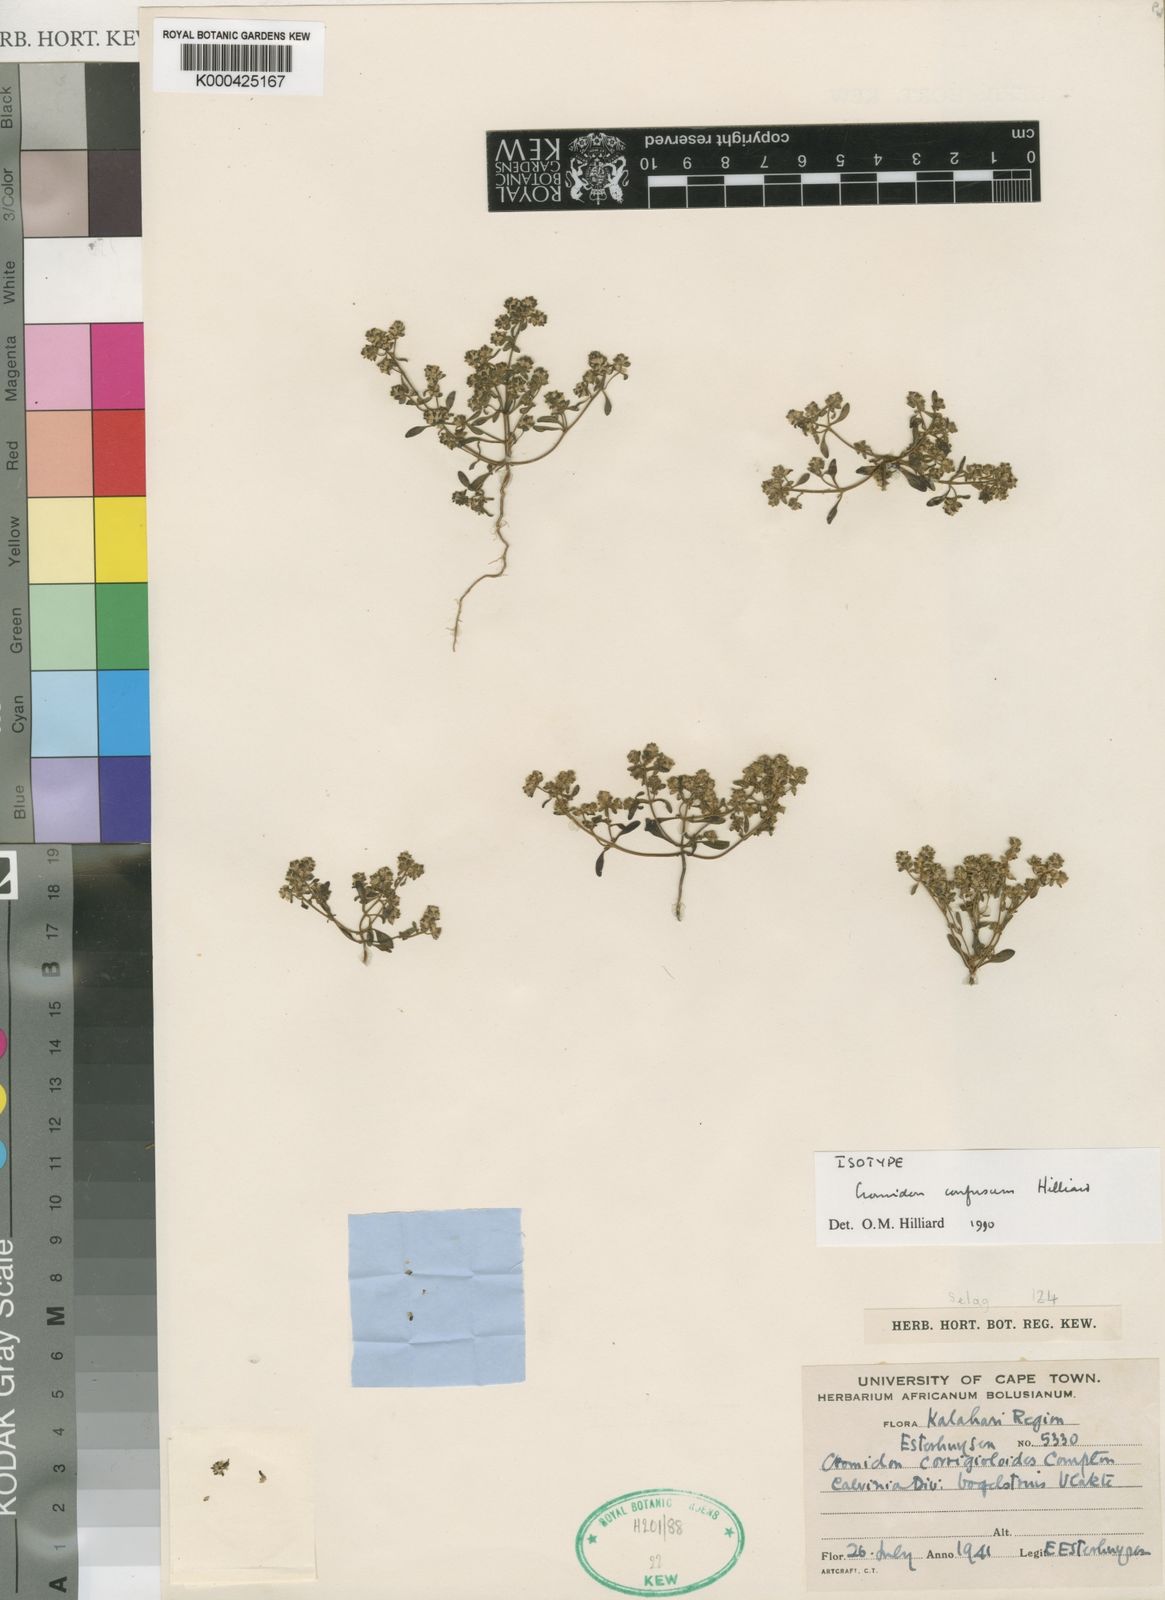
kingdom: Plantae
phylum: Tracheophyta
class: Magnoliopsida
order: Lamiales
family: Scrophulariaceae
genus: Cromidon
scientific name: Cromidon confusum
